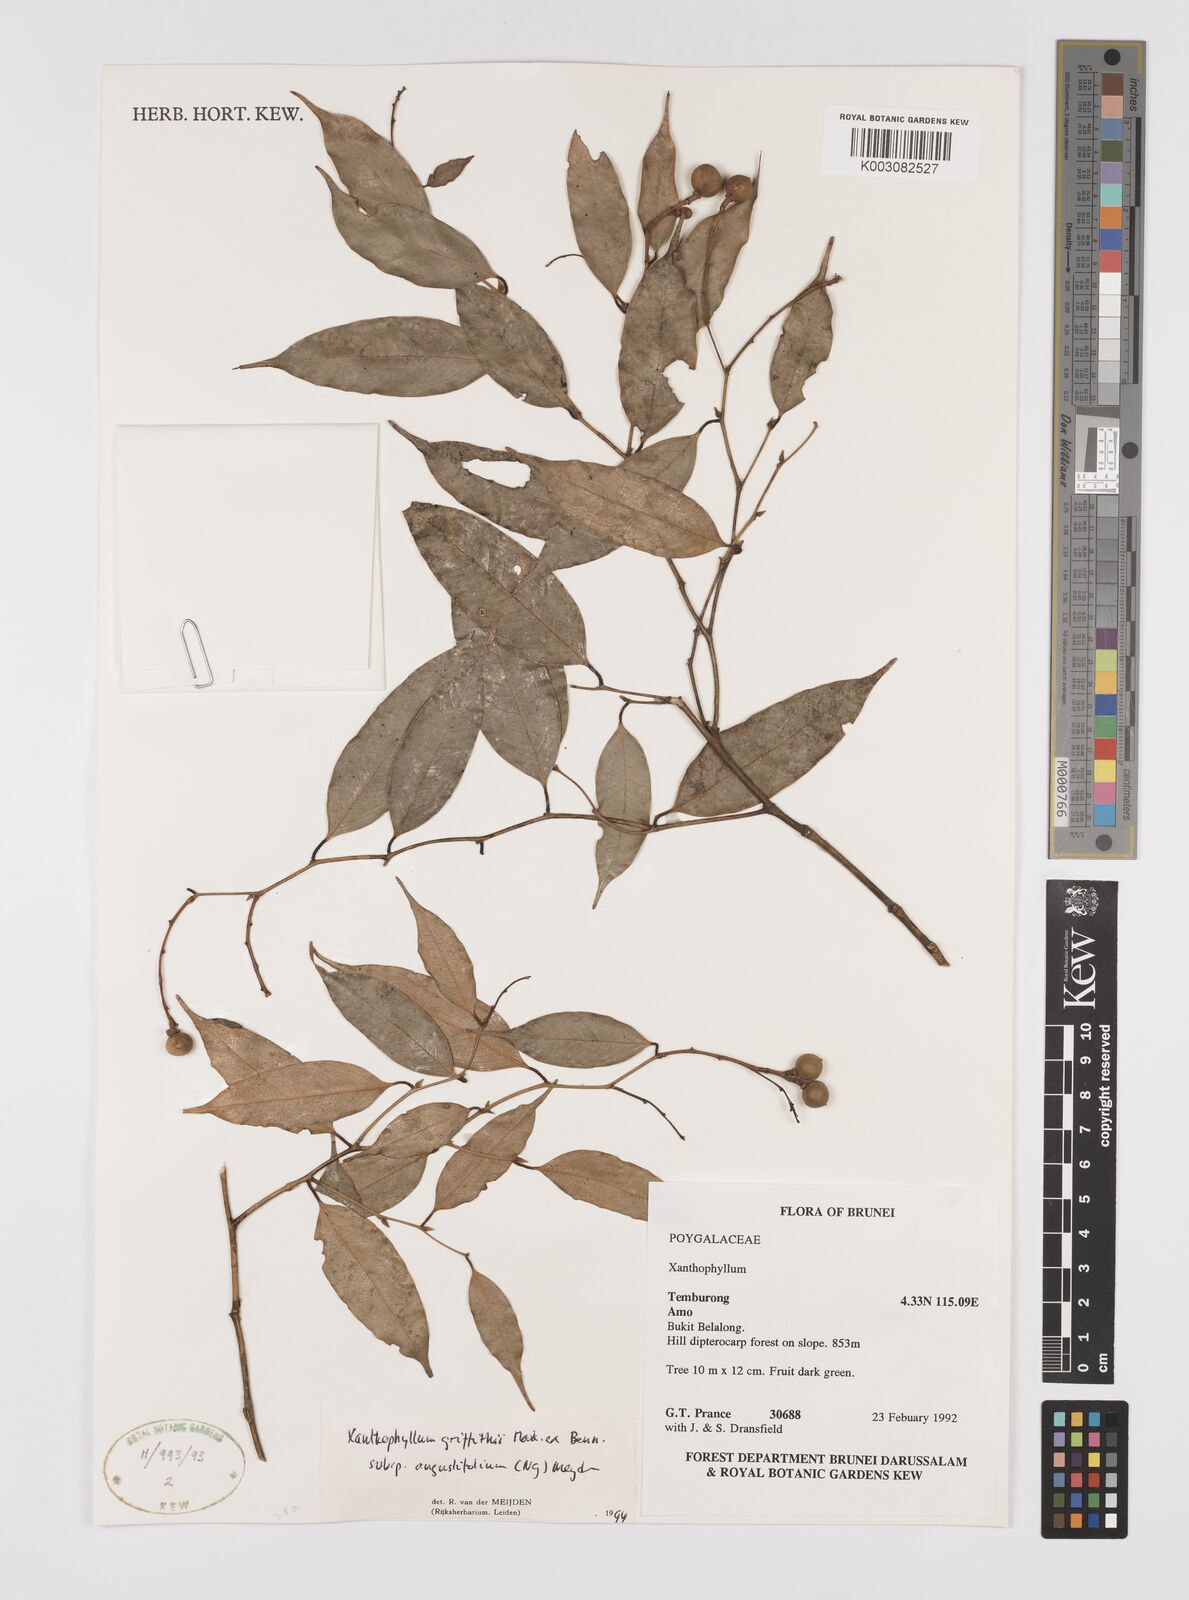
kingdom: Plantae
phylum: Tracheophyta
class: Magnoliopsida
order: Fabales
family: Polygalaceae
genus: Xanthophyllum
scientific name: Xanthophyllum griffithii
